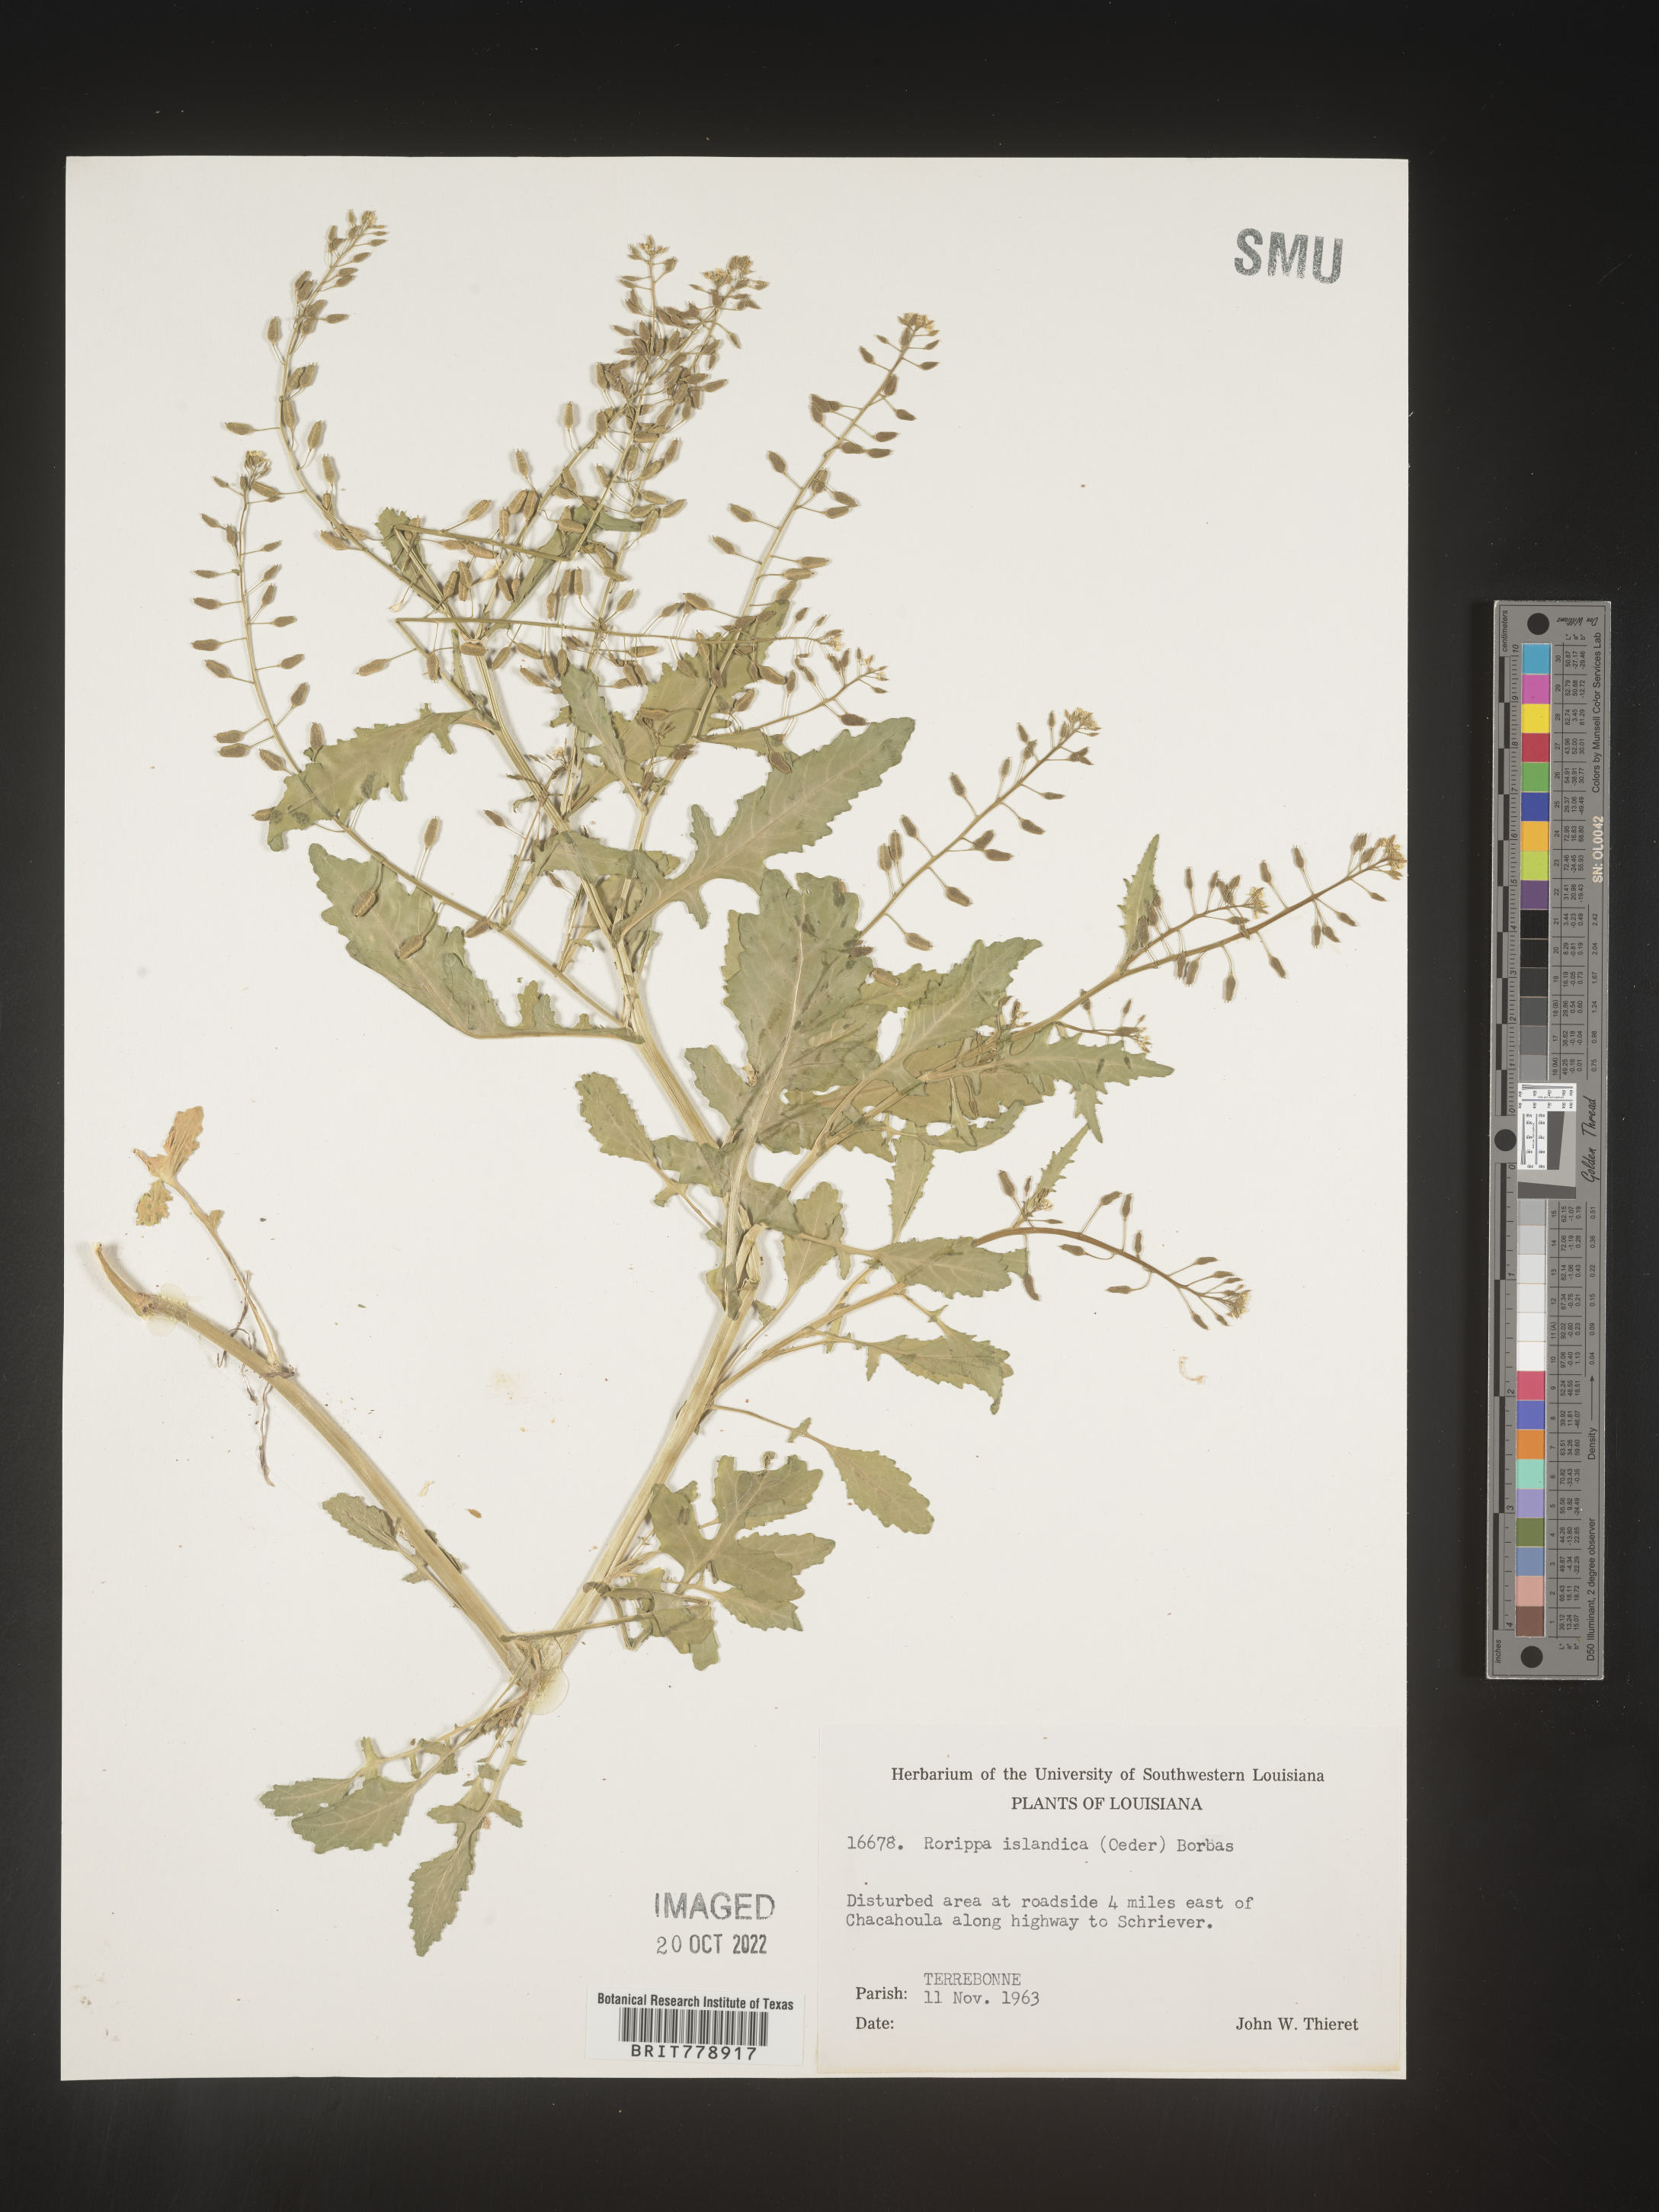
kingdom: Plantae
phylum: Tracheophyta
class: Magnoliopsida
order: Brassicales
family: Brassicaceae
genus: Rorippa
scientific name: Rorippa palustris
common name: Marsh yellow-cress
